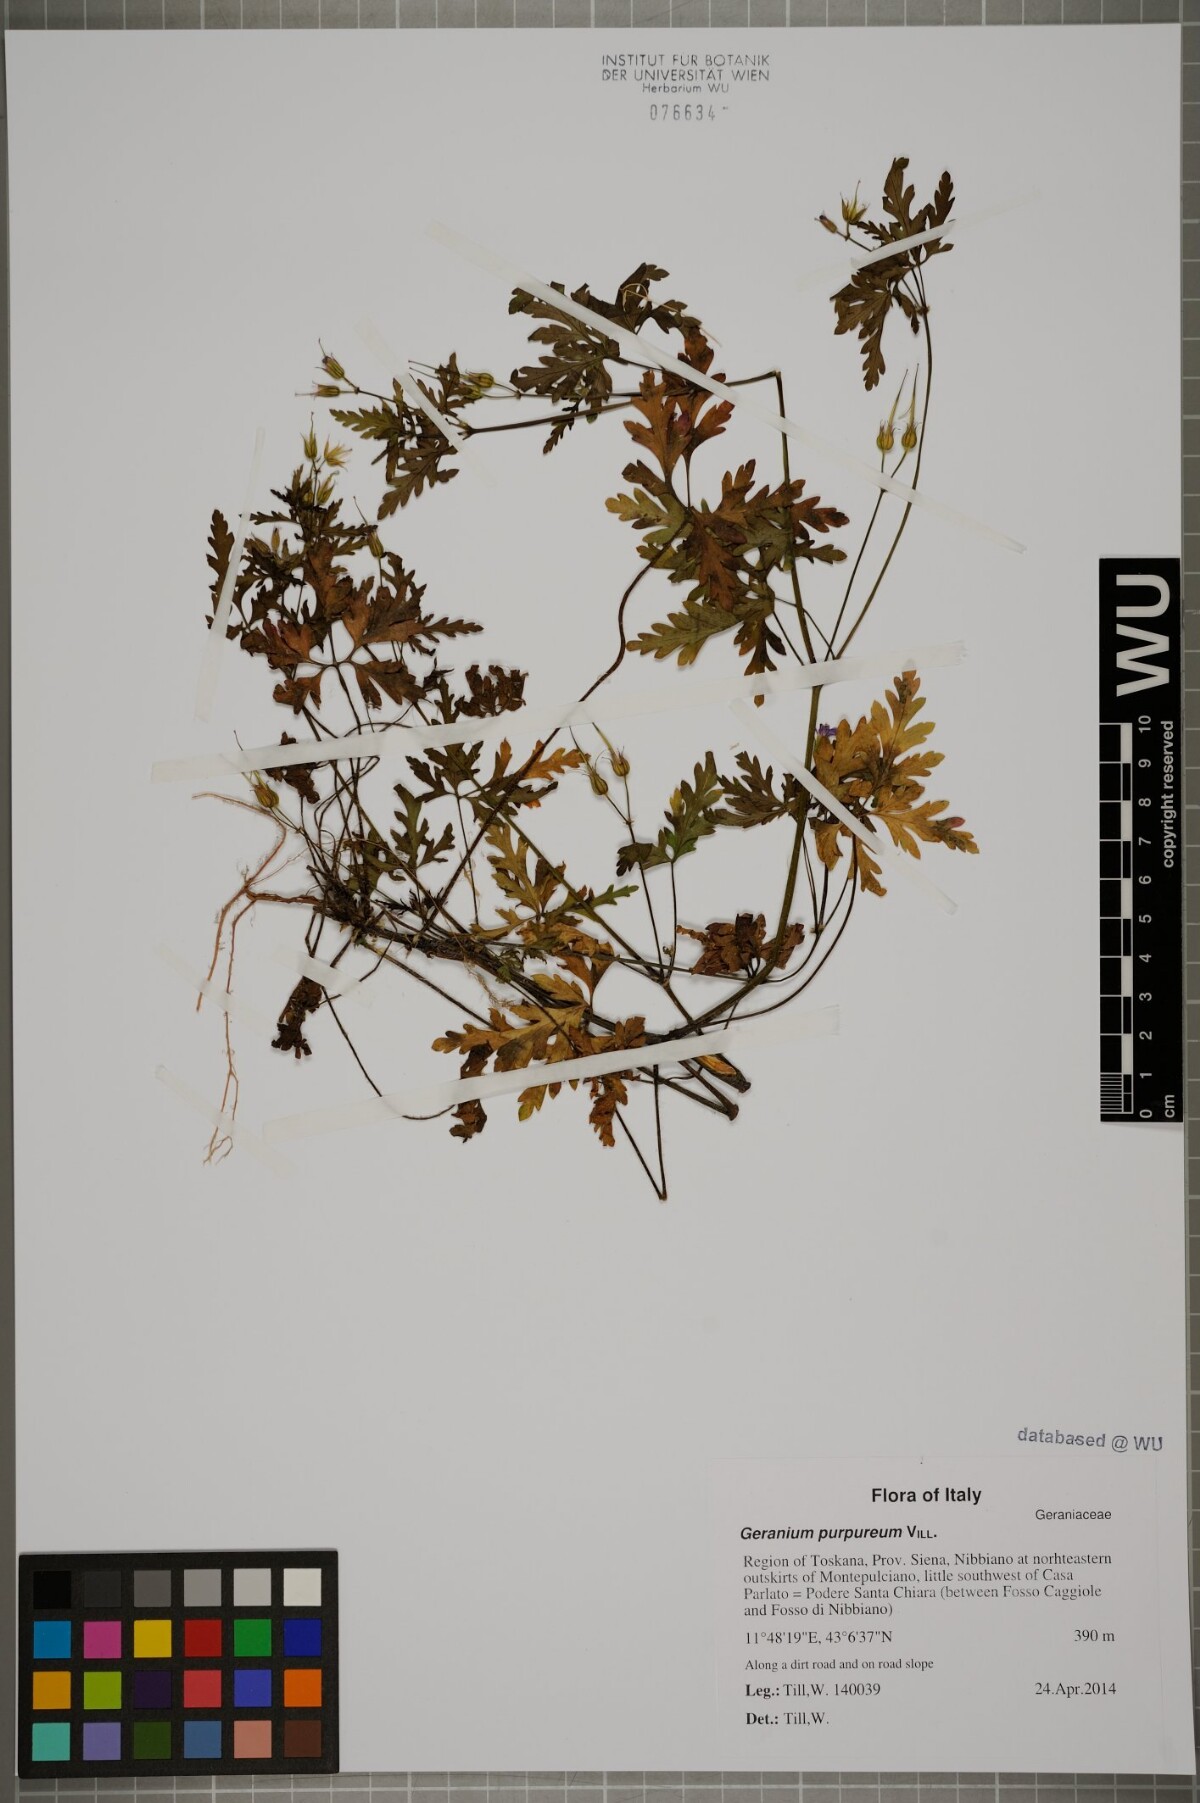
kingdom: Plantae
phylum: Tracheophyta
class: Magnoliopsida
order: Geraniales
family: Geraniaceae
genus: Geranium
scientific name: Geranium purpureum
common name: Little-robin
